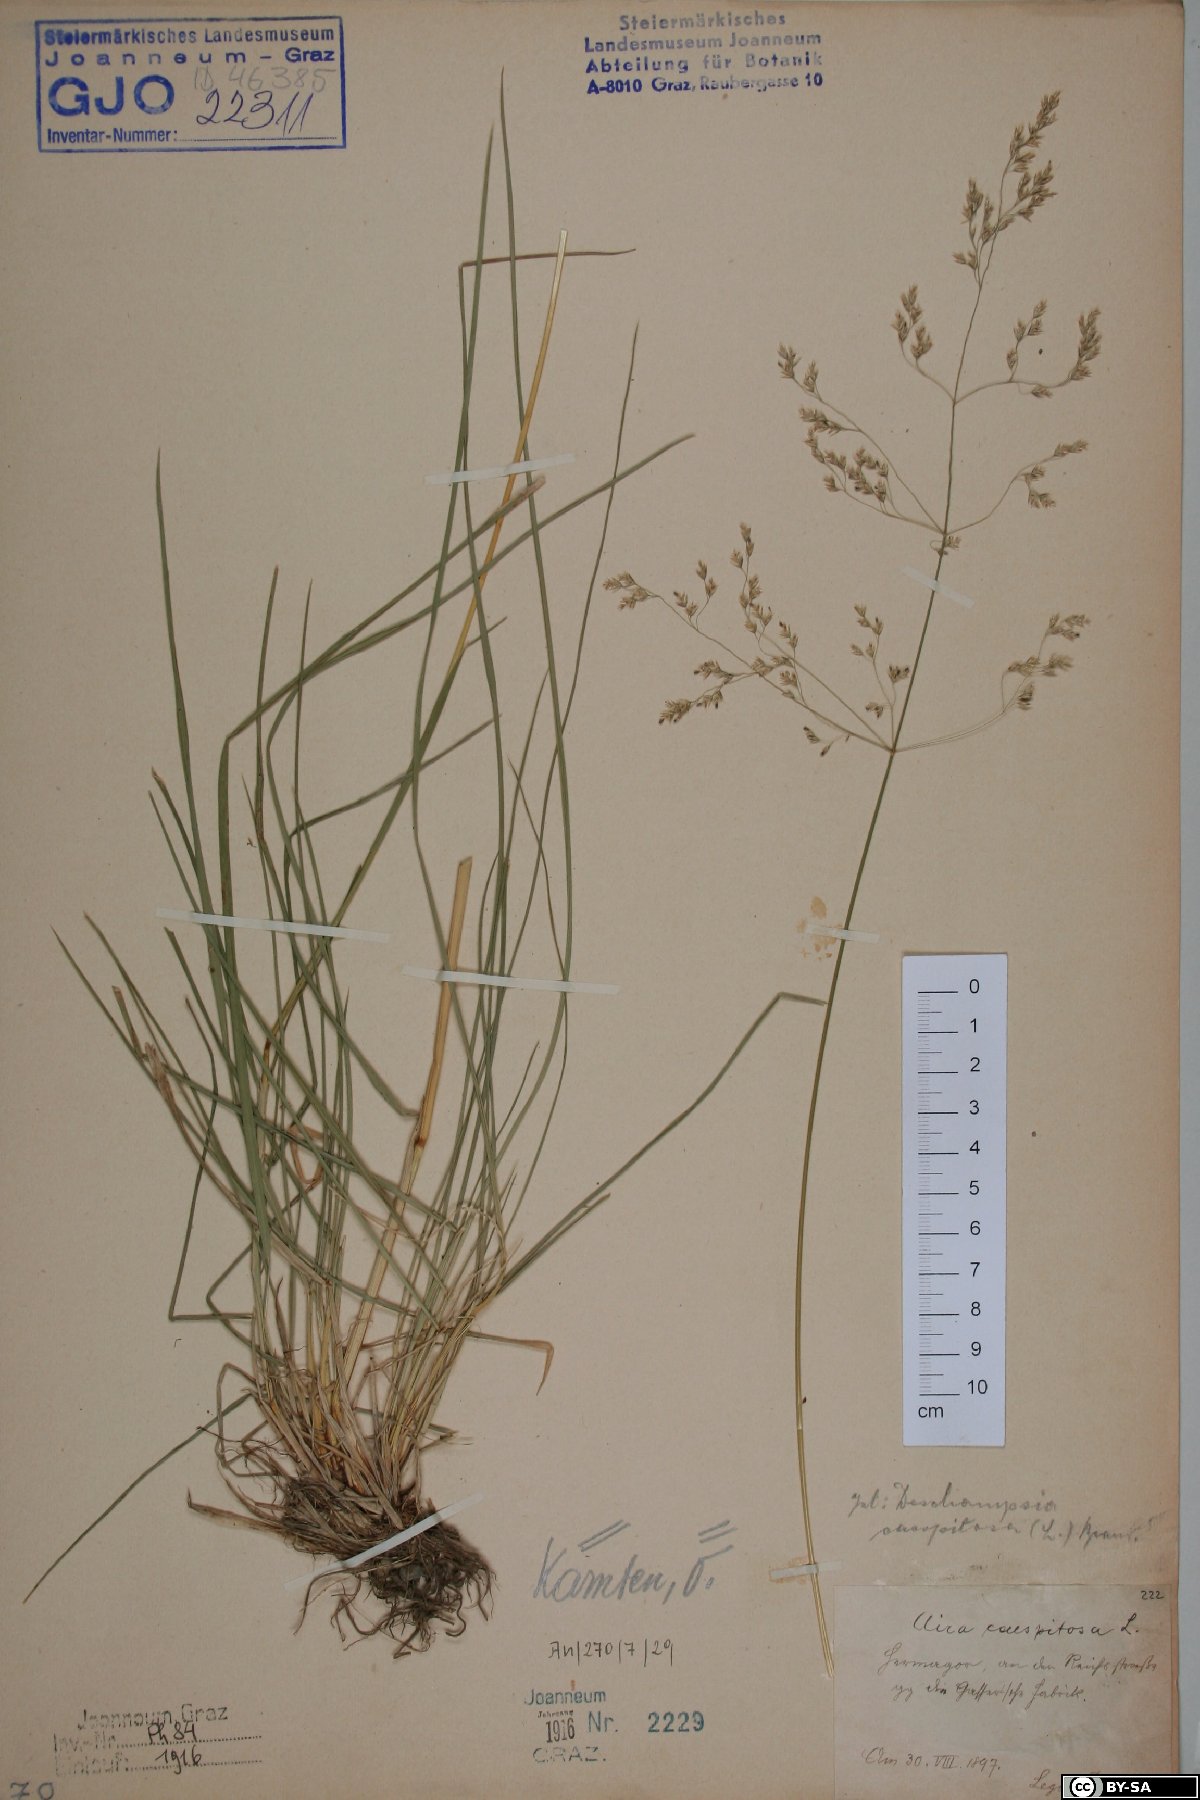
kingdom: Plantae
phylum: Tracheophyta
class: Liliopsida
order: Poales
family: Poaceae
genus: Deschampsia
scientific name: Deschampsia cespitosa
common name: Tufted hair-grass
